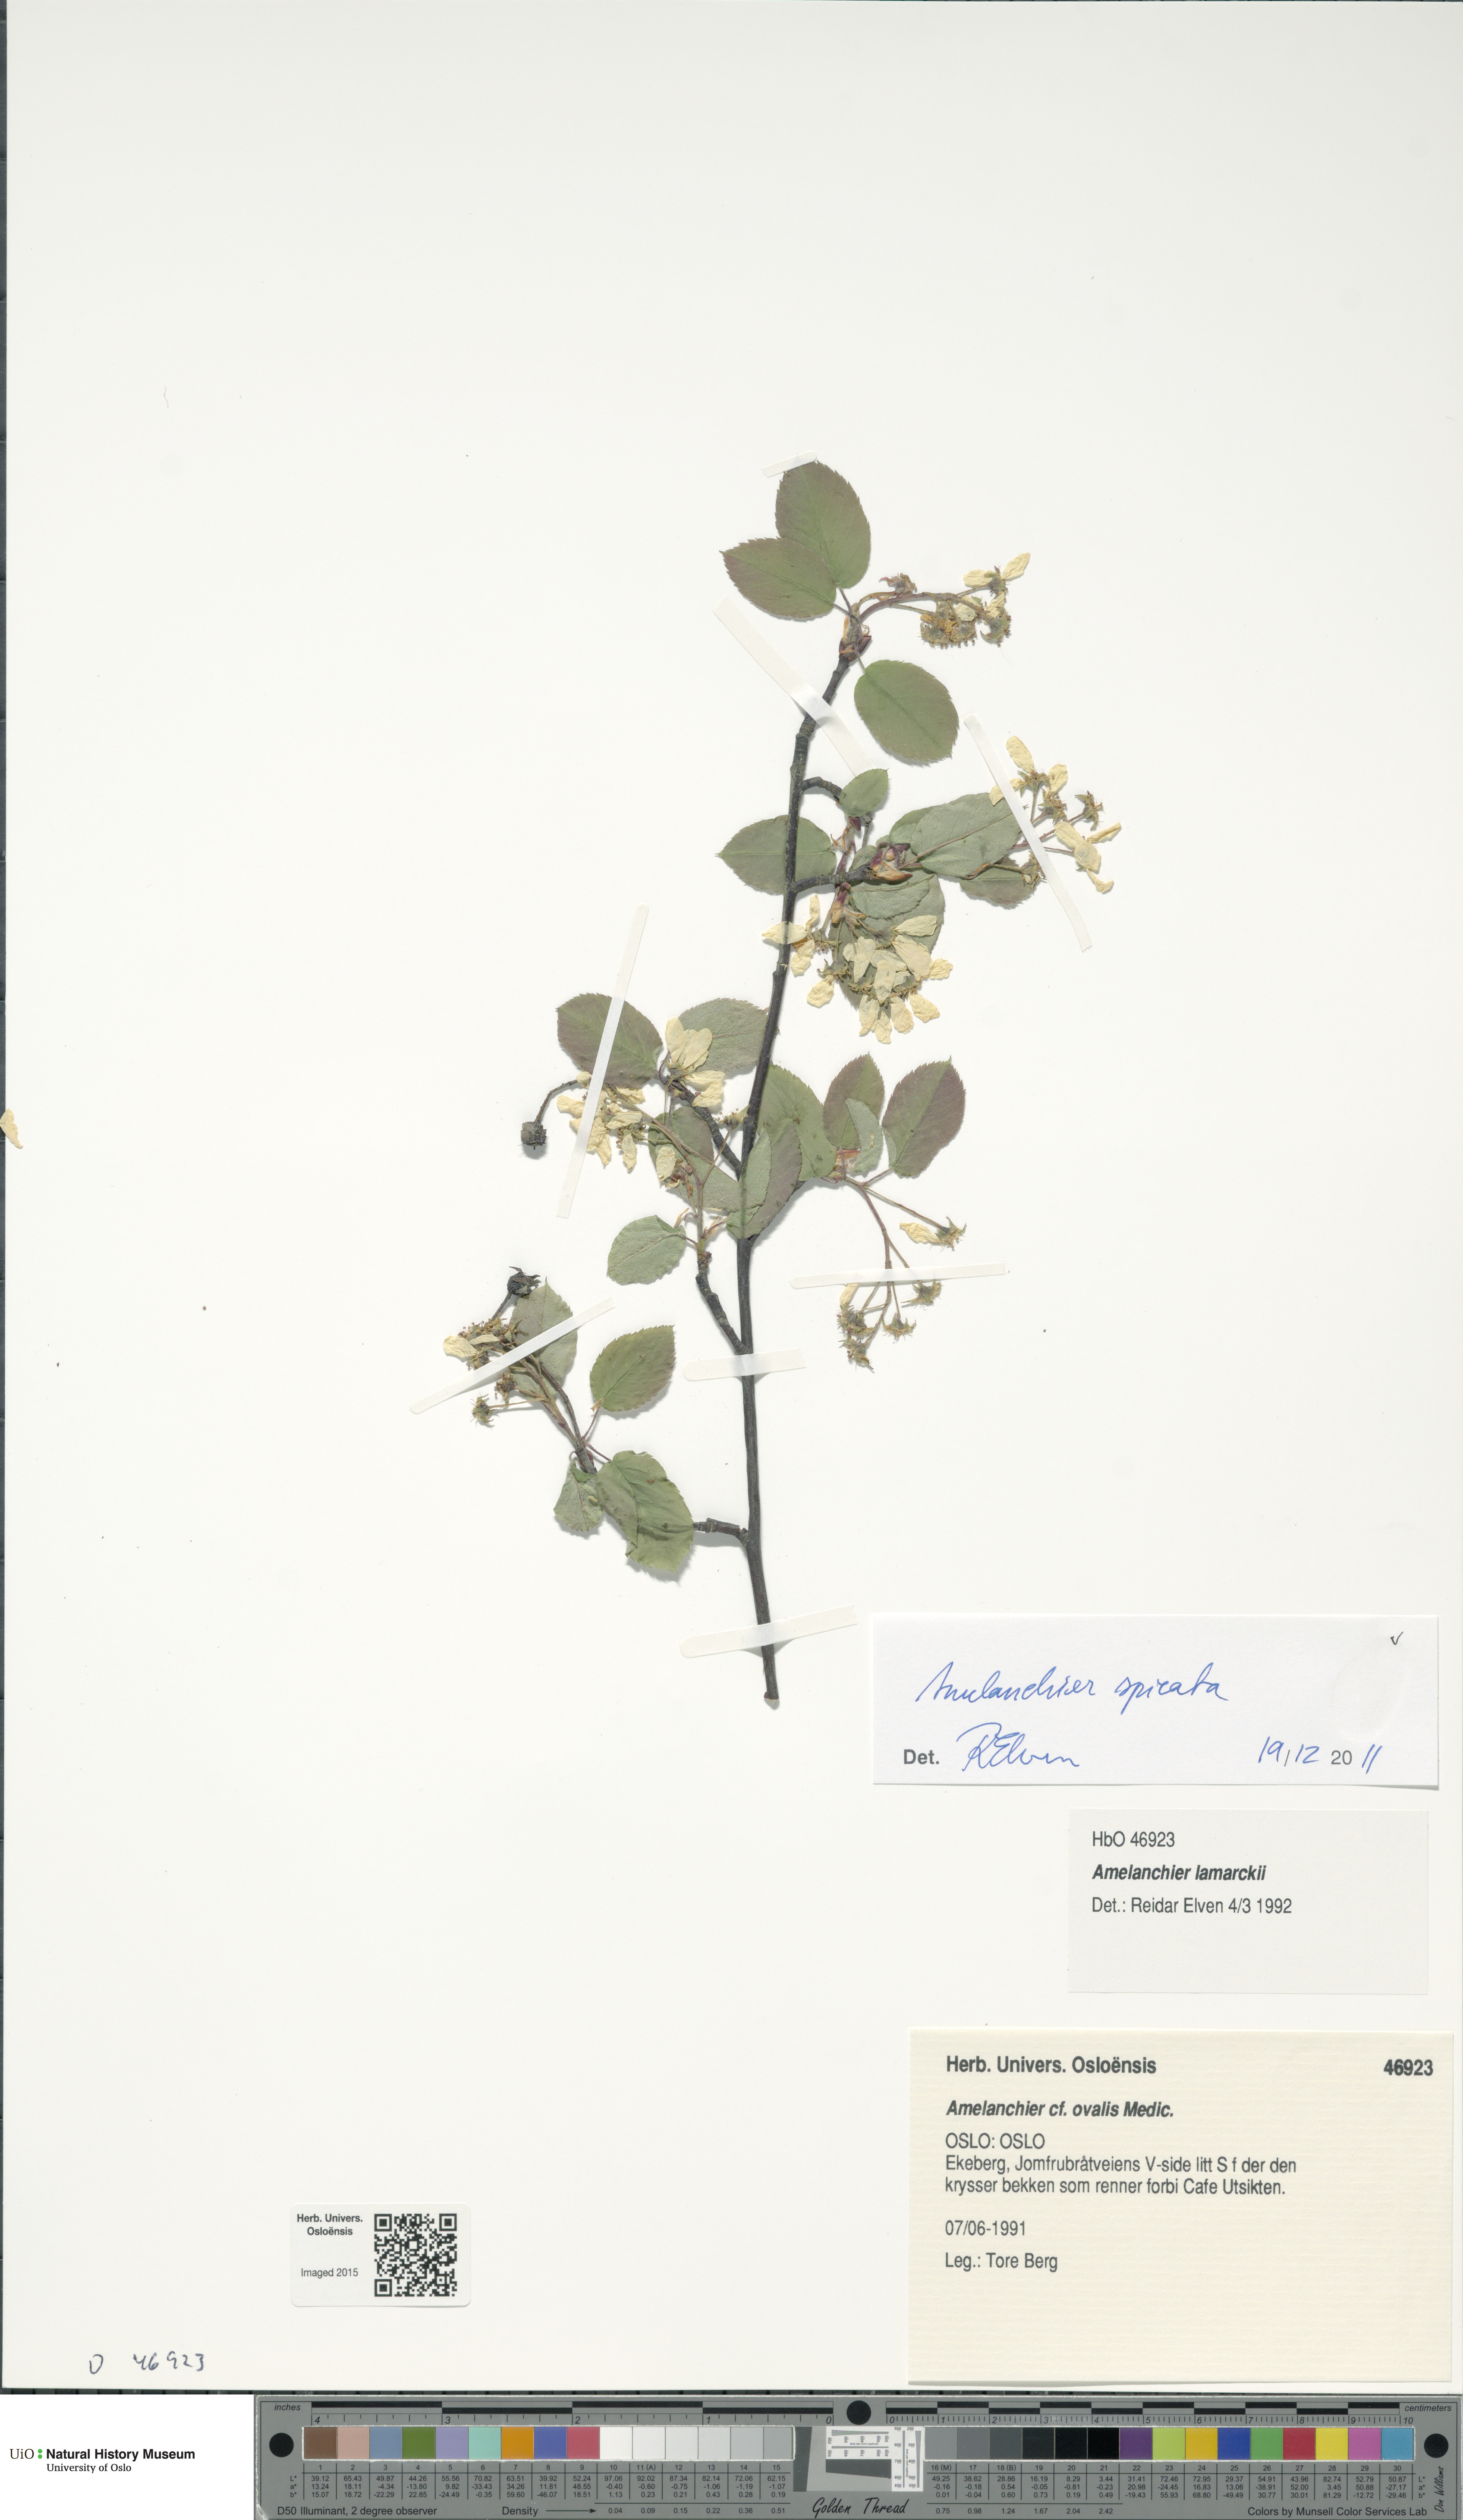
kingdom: Plantae
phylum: Tracheophyta
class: Magnoliopsida
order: Rosales
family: Rosaceae
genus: Amelanchier
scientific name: Amelanchier humilis
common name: Low juneberry
